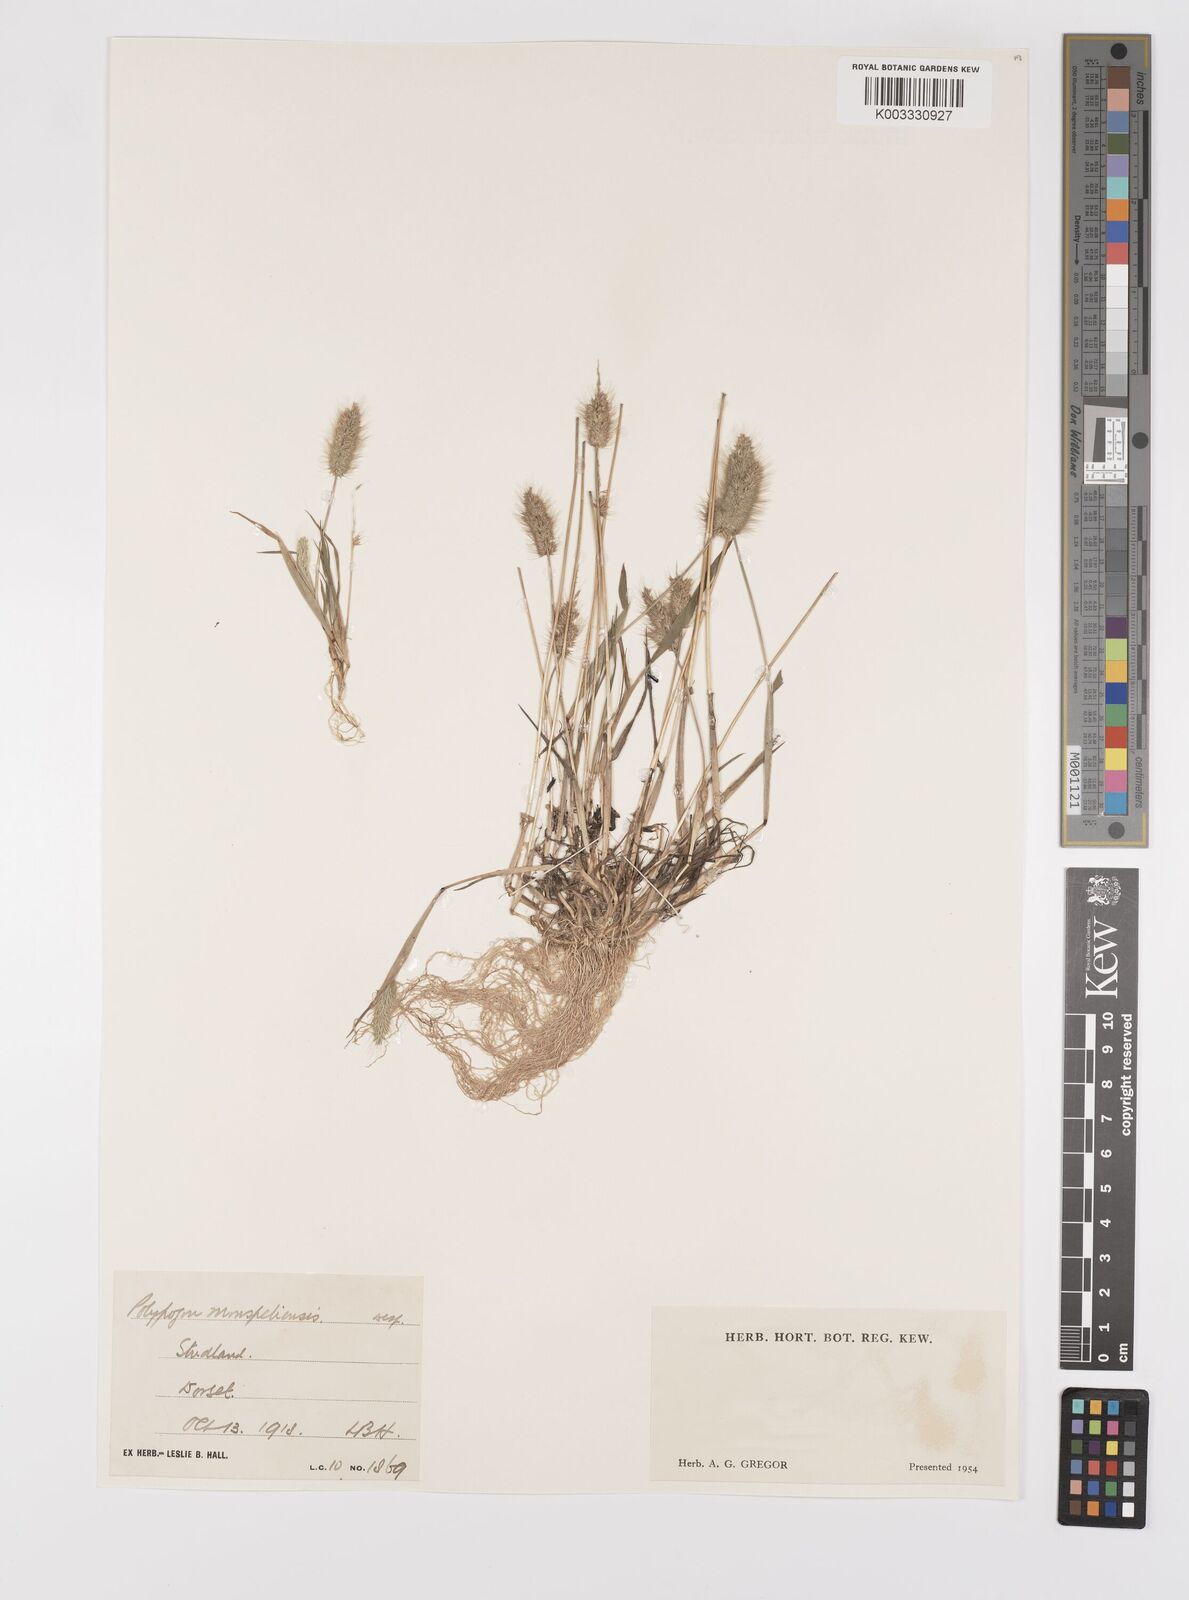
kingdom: Plantae
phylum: Tracheophyta
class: Liliopsida
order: Poales
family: Poaceae
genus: Polypogon
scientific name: Polypogon monspeliensis
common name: Annual rabbitsfoot grass
